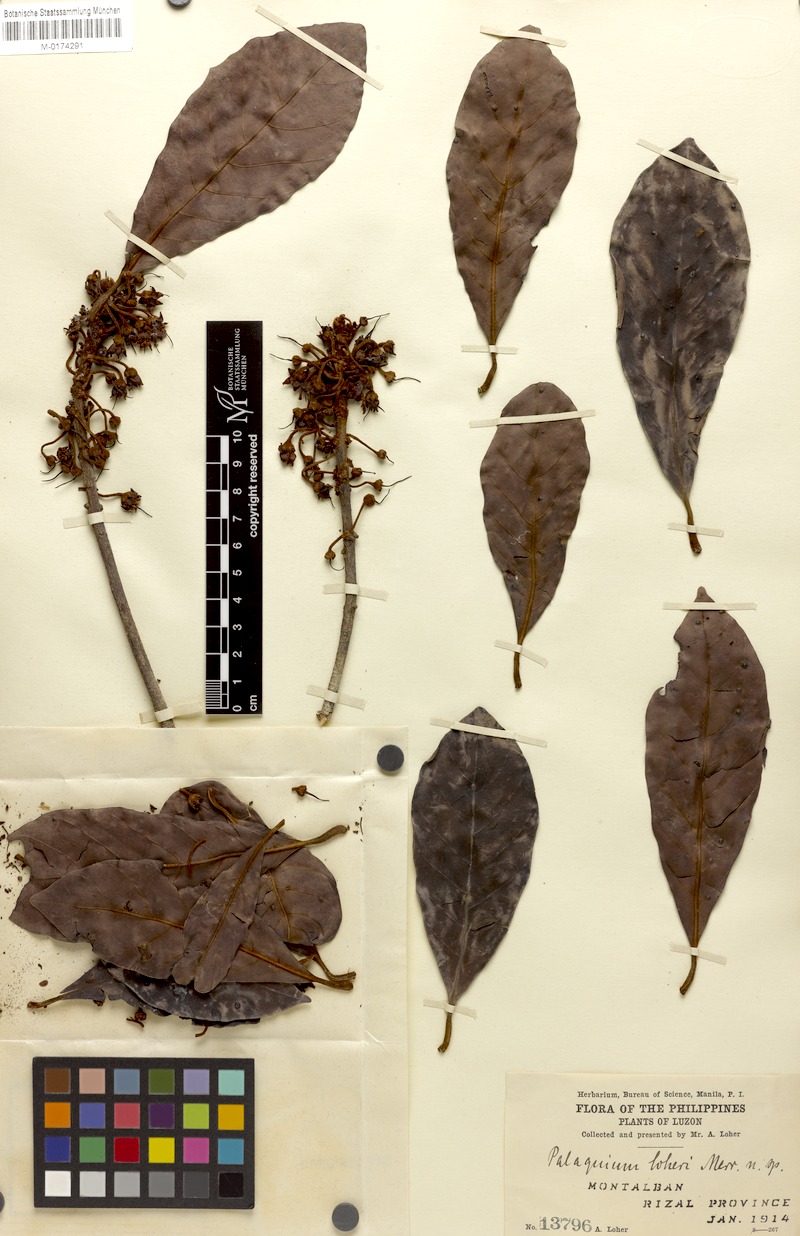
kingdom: Plantae
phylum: Tracheophyta
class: Magnoliopsida
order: Ericales
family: Sapotaceae
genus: Palaquium
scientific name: Palaquium loheri
